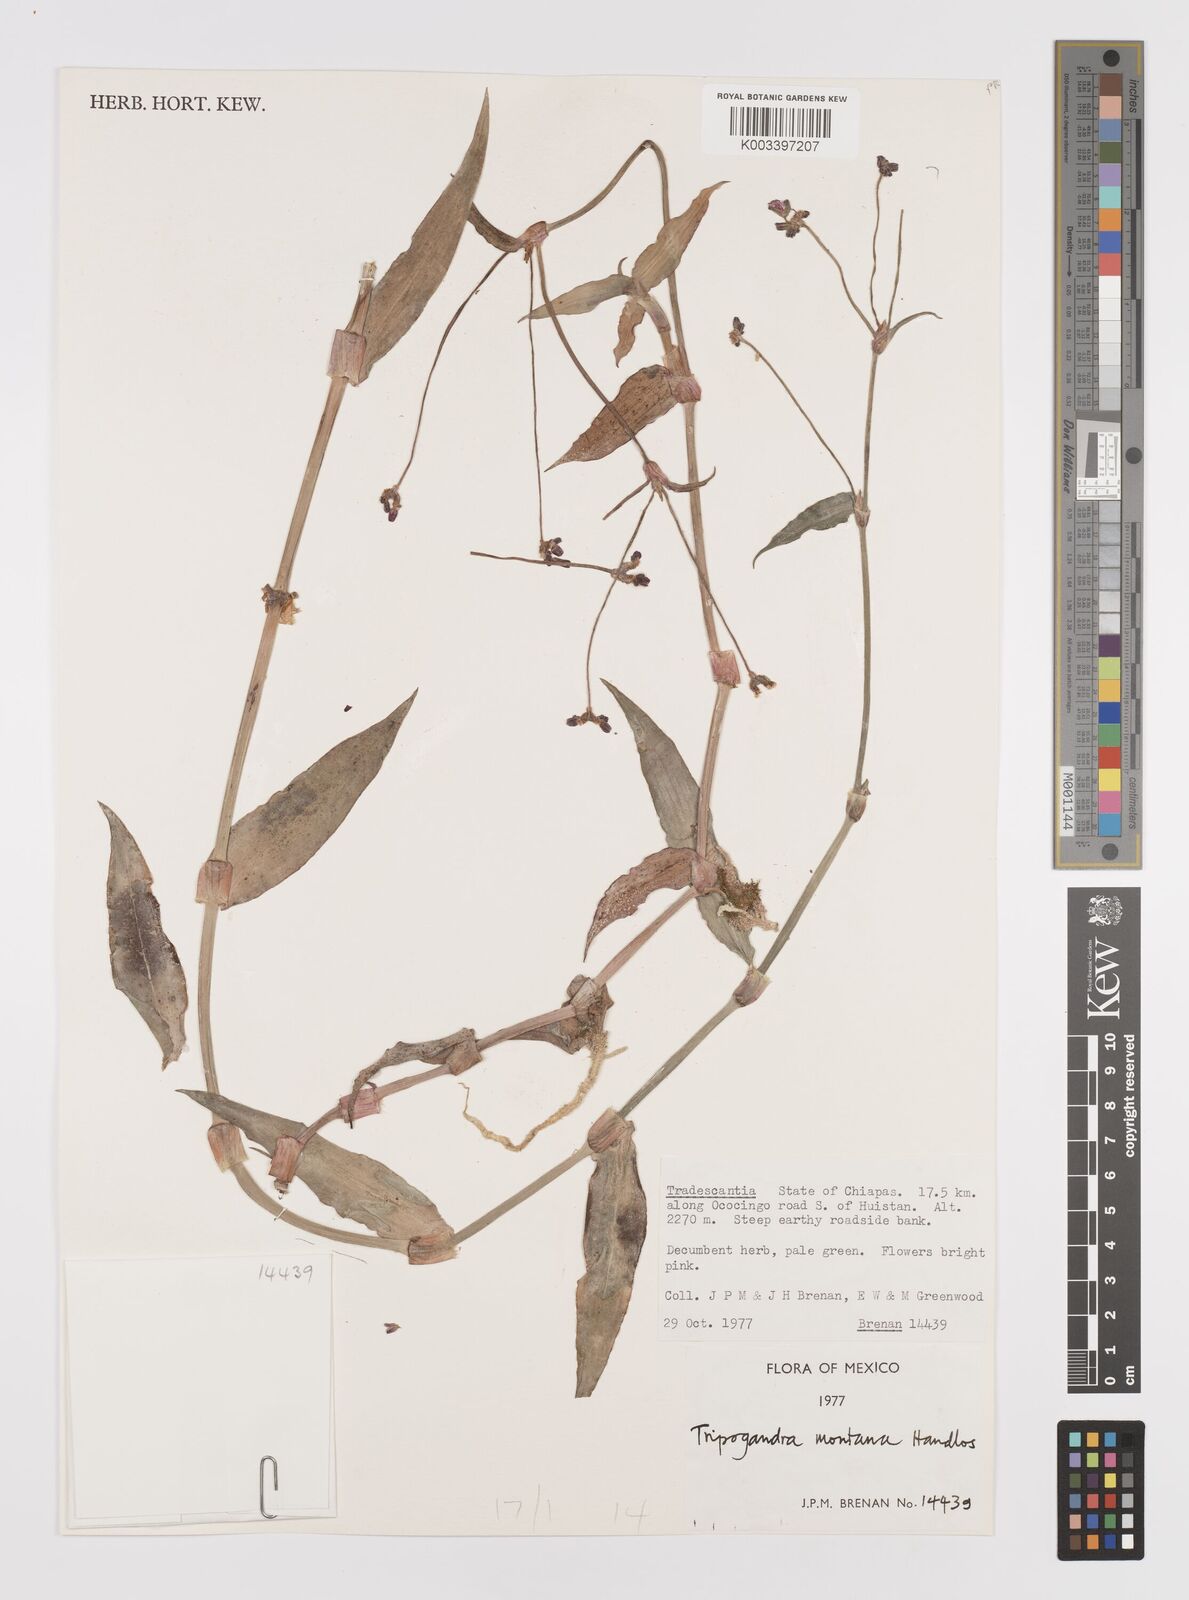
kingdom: Plantae
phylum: Tracheophyta
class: Liliopsida
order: Commelinales
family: Commelinaceae
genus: Callisia
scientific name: Callisia montana
